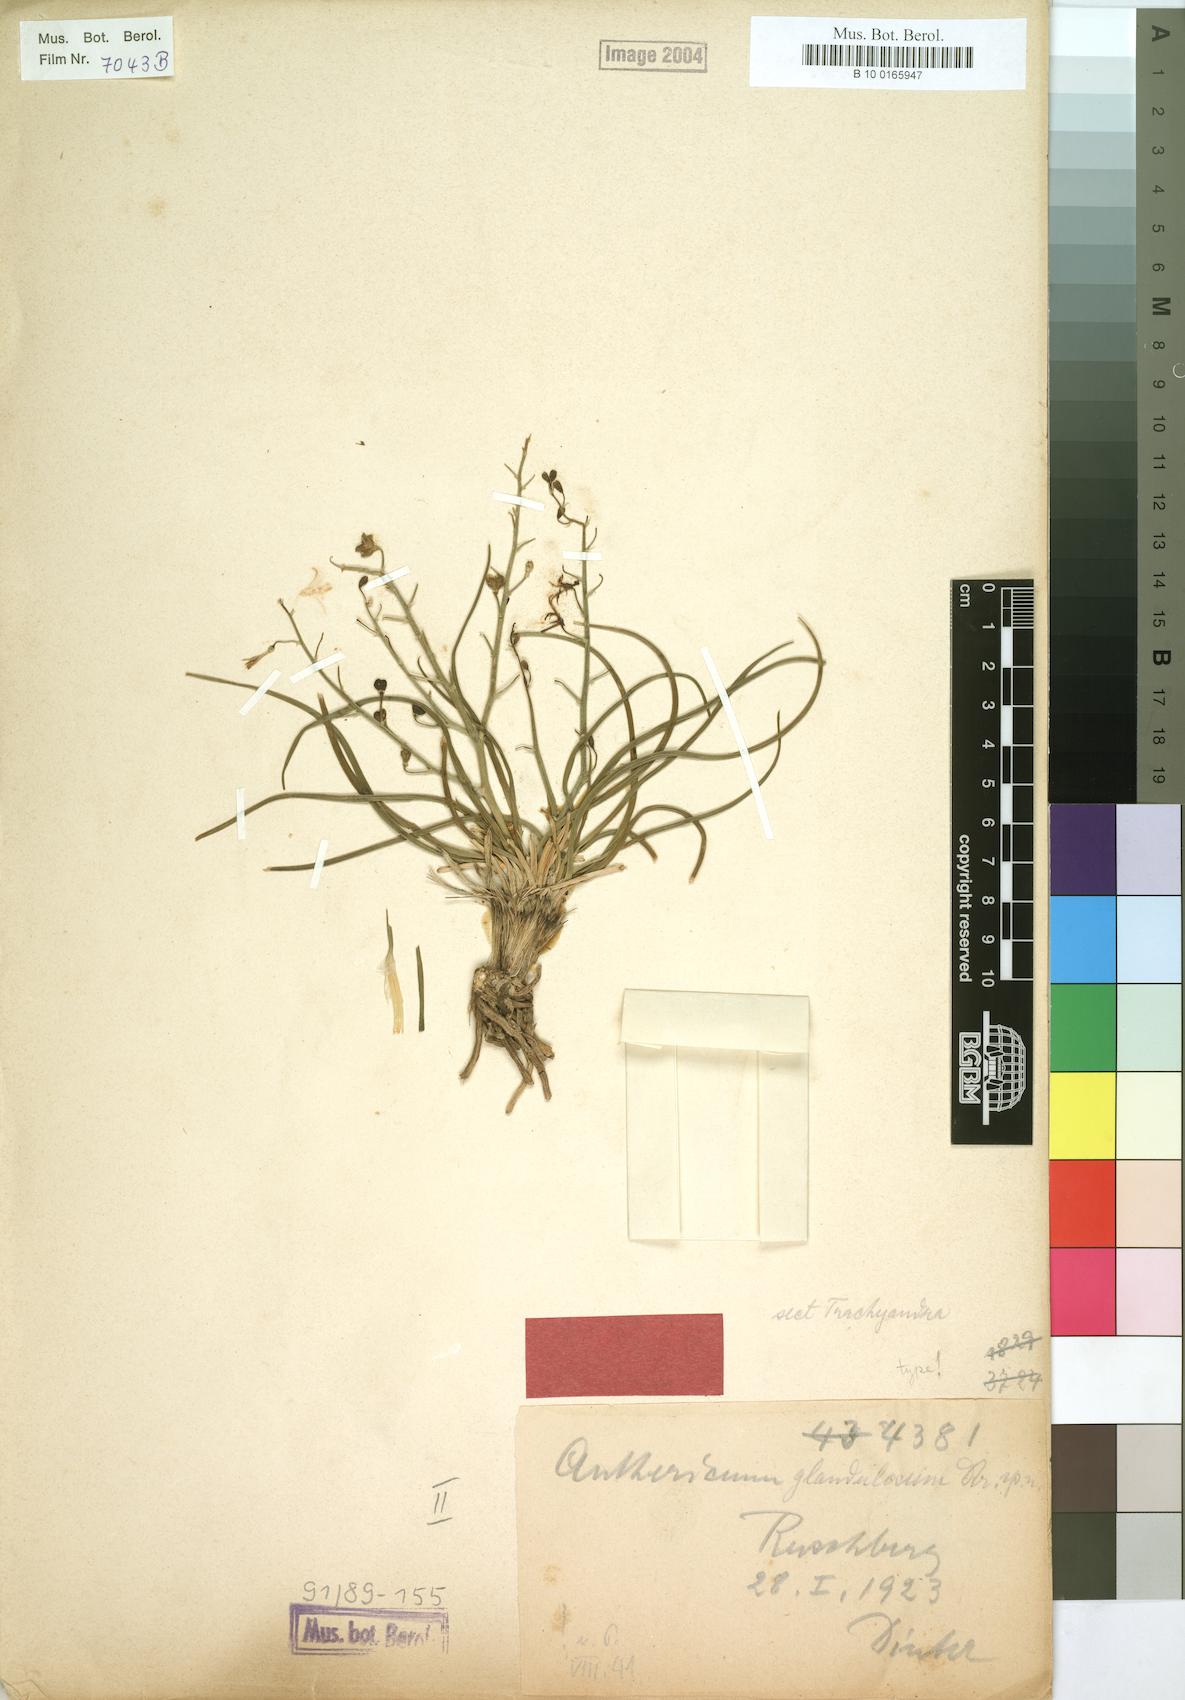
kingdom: Plantae
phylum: Tracheophyta
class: Liliopsida
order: Asparagales
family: Asphodelaceae
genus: Trachyandra
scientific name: Trachyandra glandulosa
